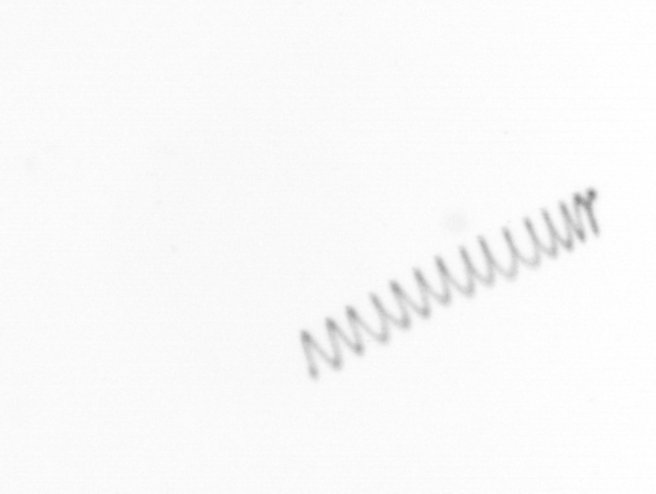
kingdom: Chromista
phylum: Ochrophyta
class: Bacillariophyceae
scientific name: Bacillariophyceae
